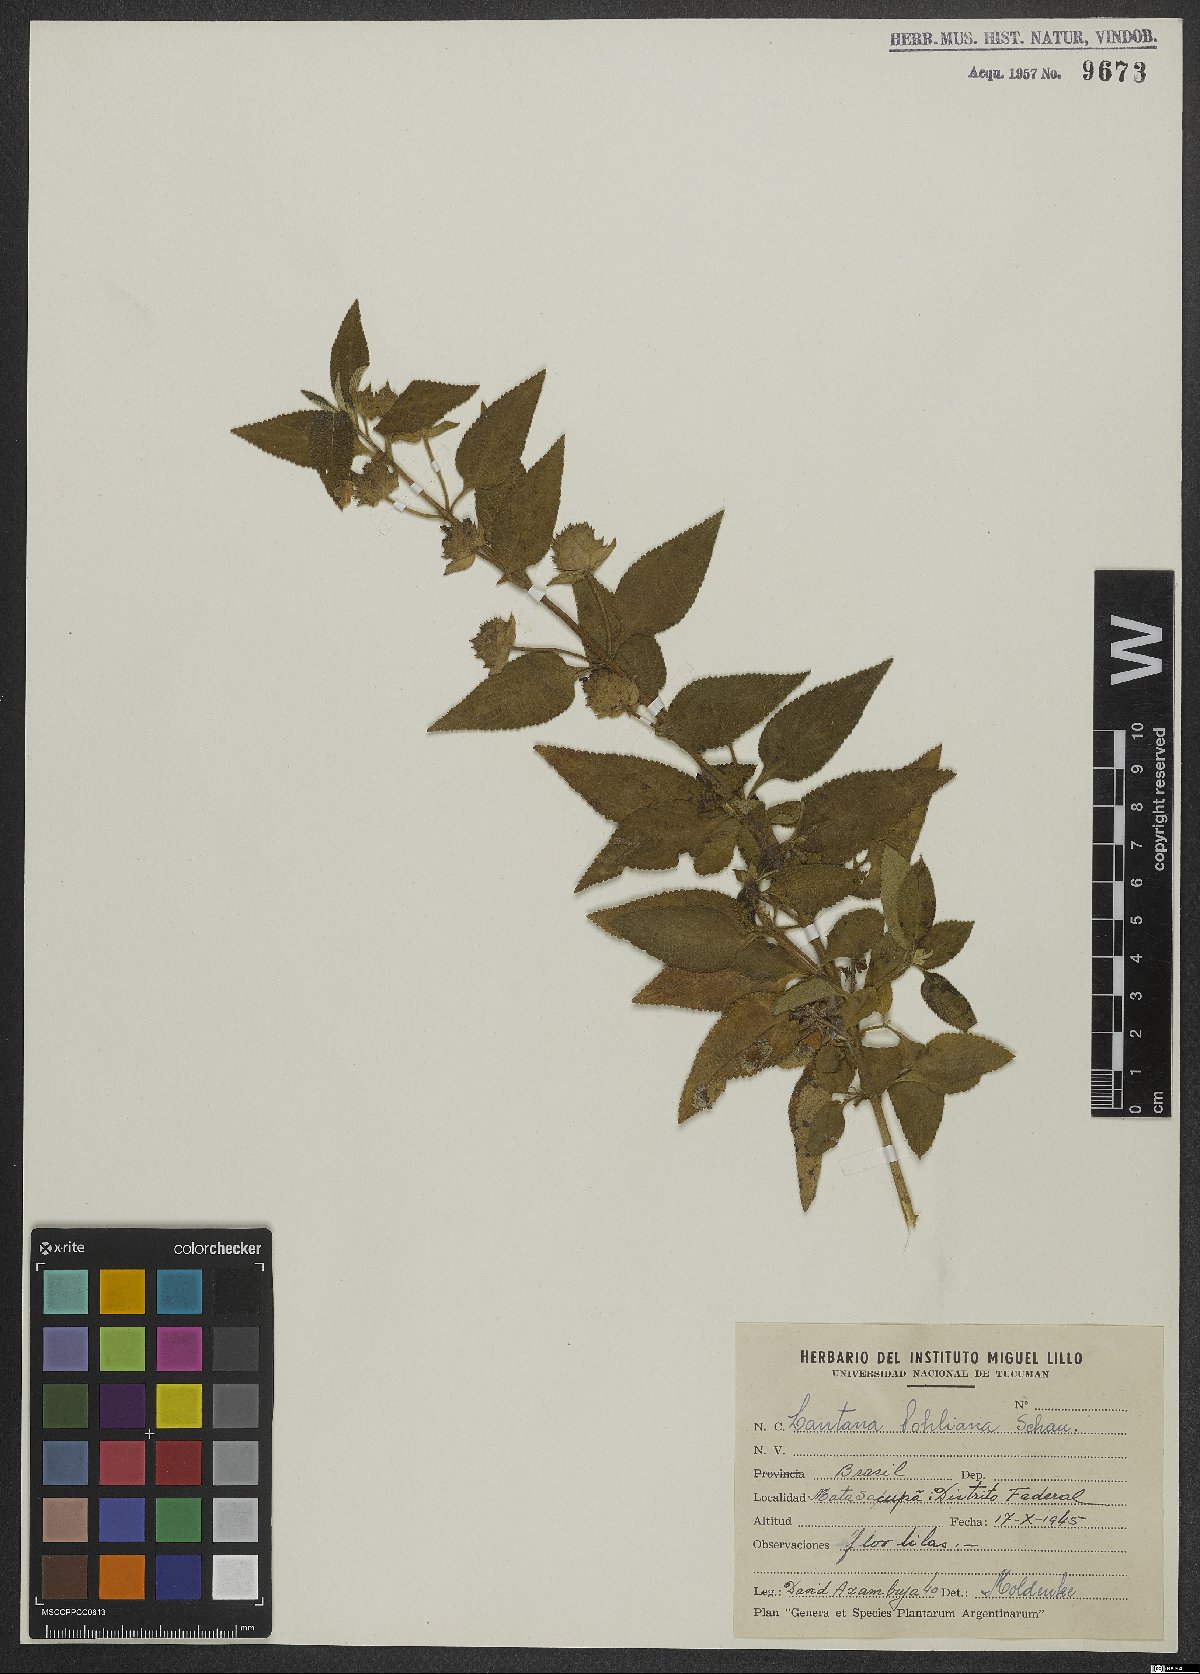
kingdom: Plantae
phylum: Tracheophyta
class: Magnoliopsida
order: Lamiales
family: Verbenaceae
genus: Lantana
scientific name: Lantana pohliana
